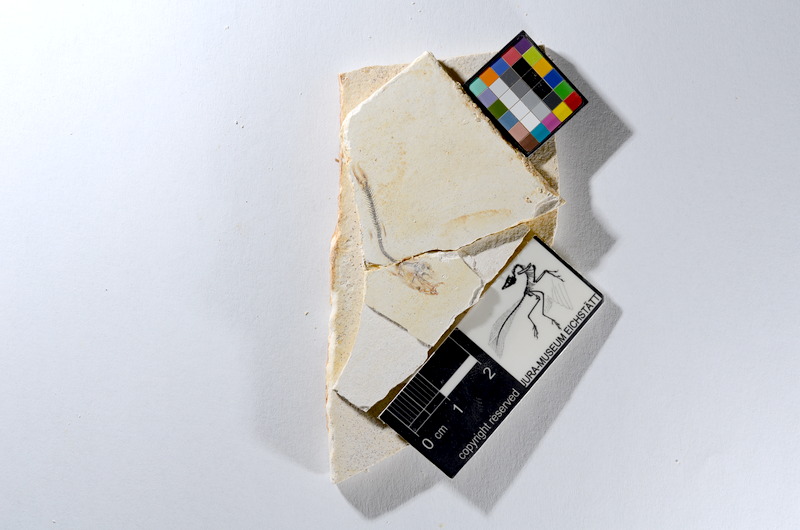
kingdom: Animalia
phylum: Chordata
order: Salmoniformes
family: Orthogonikleithridae
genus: Orthogonikleithrus
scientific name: Orthogonikleithrus hoelli
